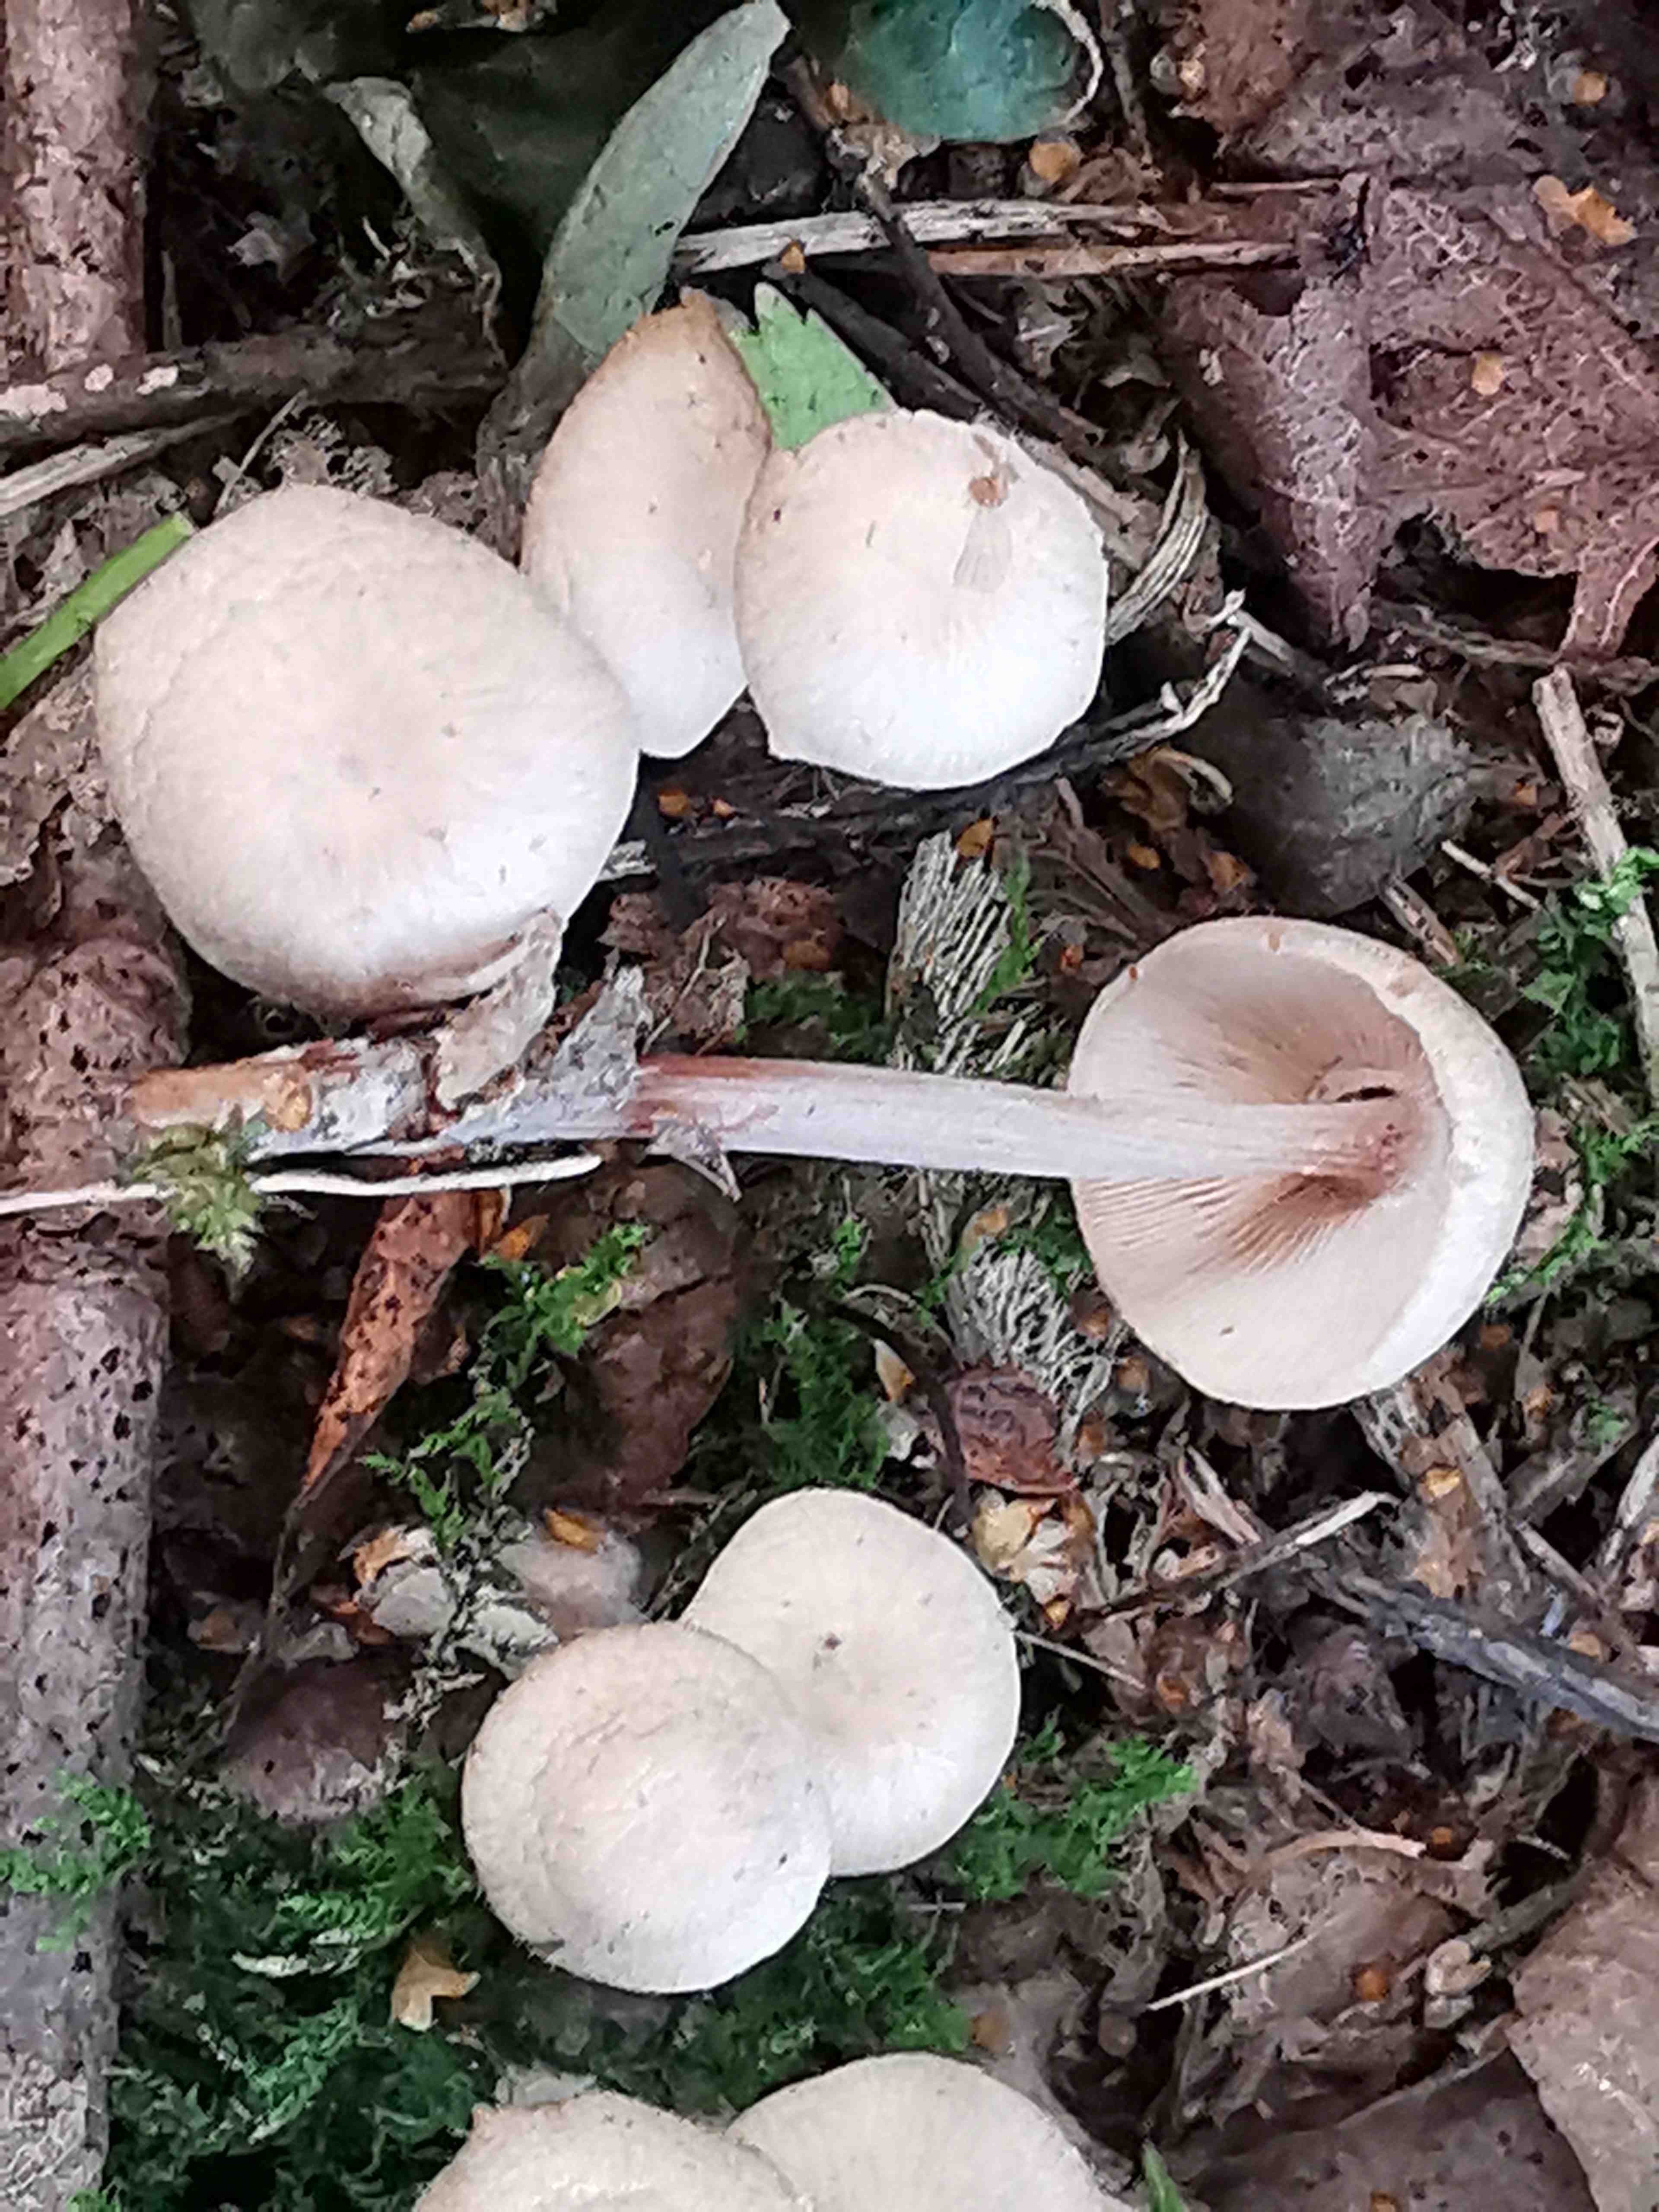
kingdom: Fungi
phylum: Basidiomycota
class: Agaricomycetes
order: Agaricales
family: Omphalotaceae
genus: Collybiopsis
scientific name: Collybiopsis confluens
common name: knippe-fladhat
